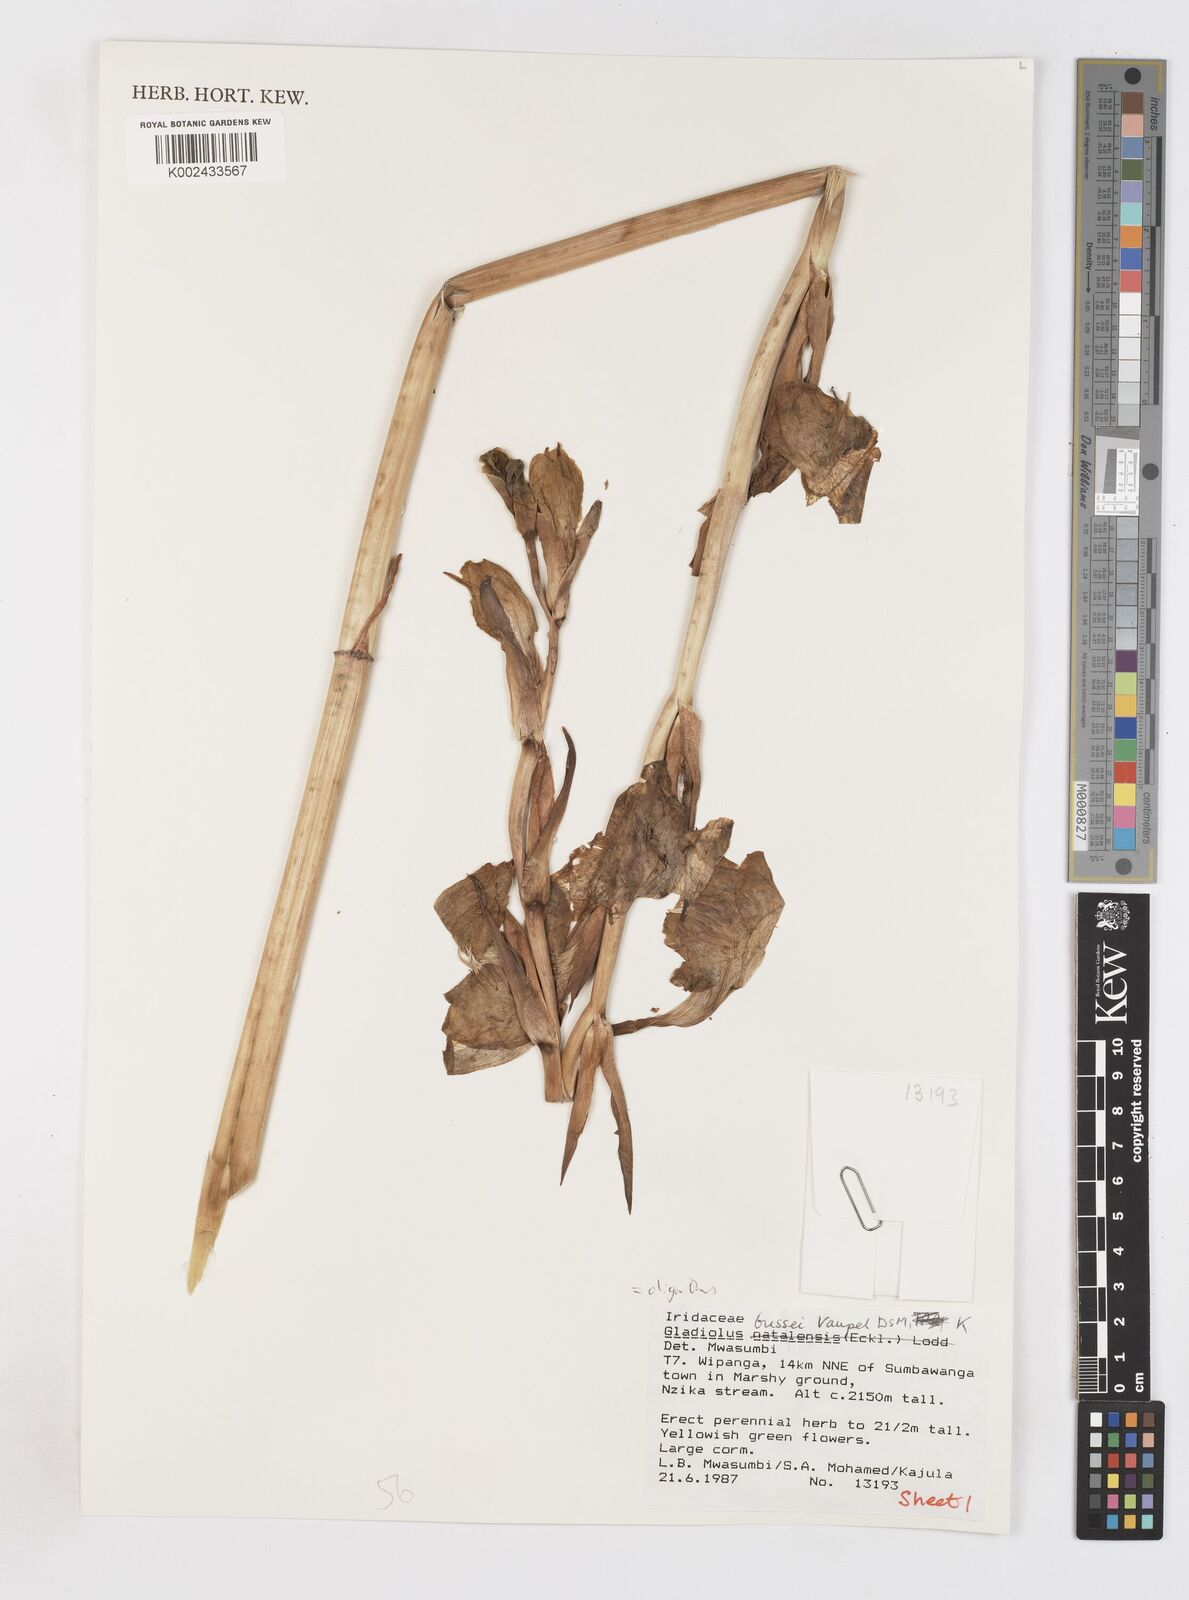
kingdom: Plantae
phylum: Tracheophyta
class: Liliopsida
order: Asparagales
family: Iridaceae
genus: Gladiolus
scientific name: Gladiolus oliganthus
